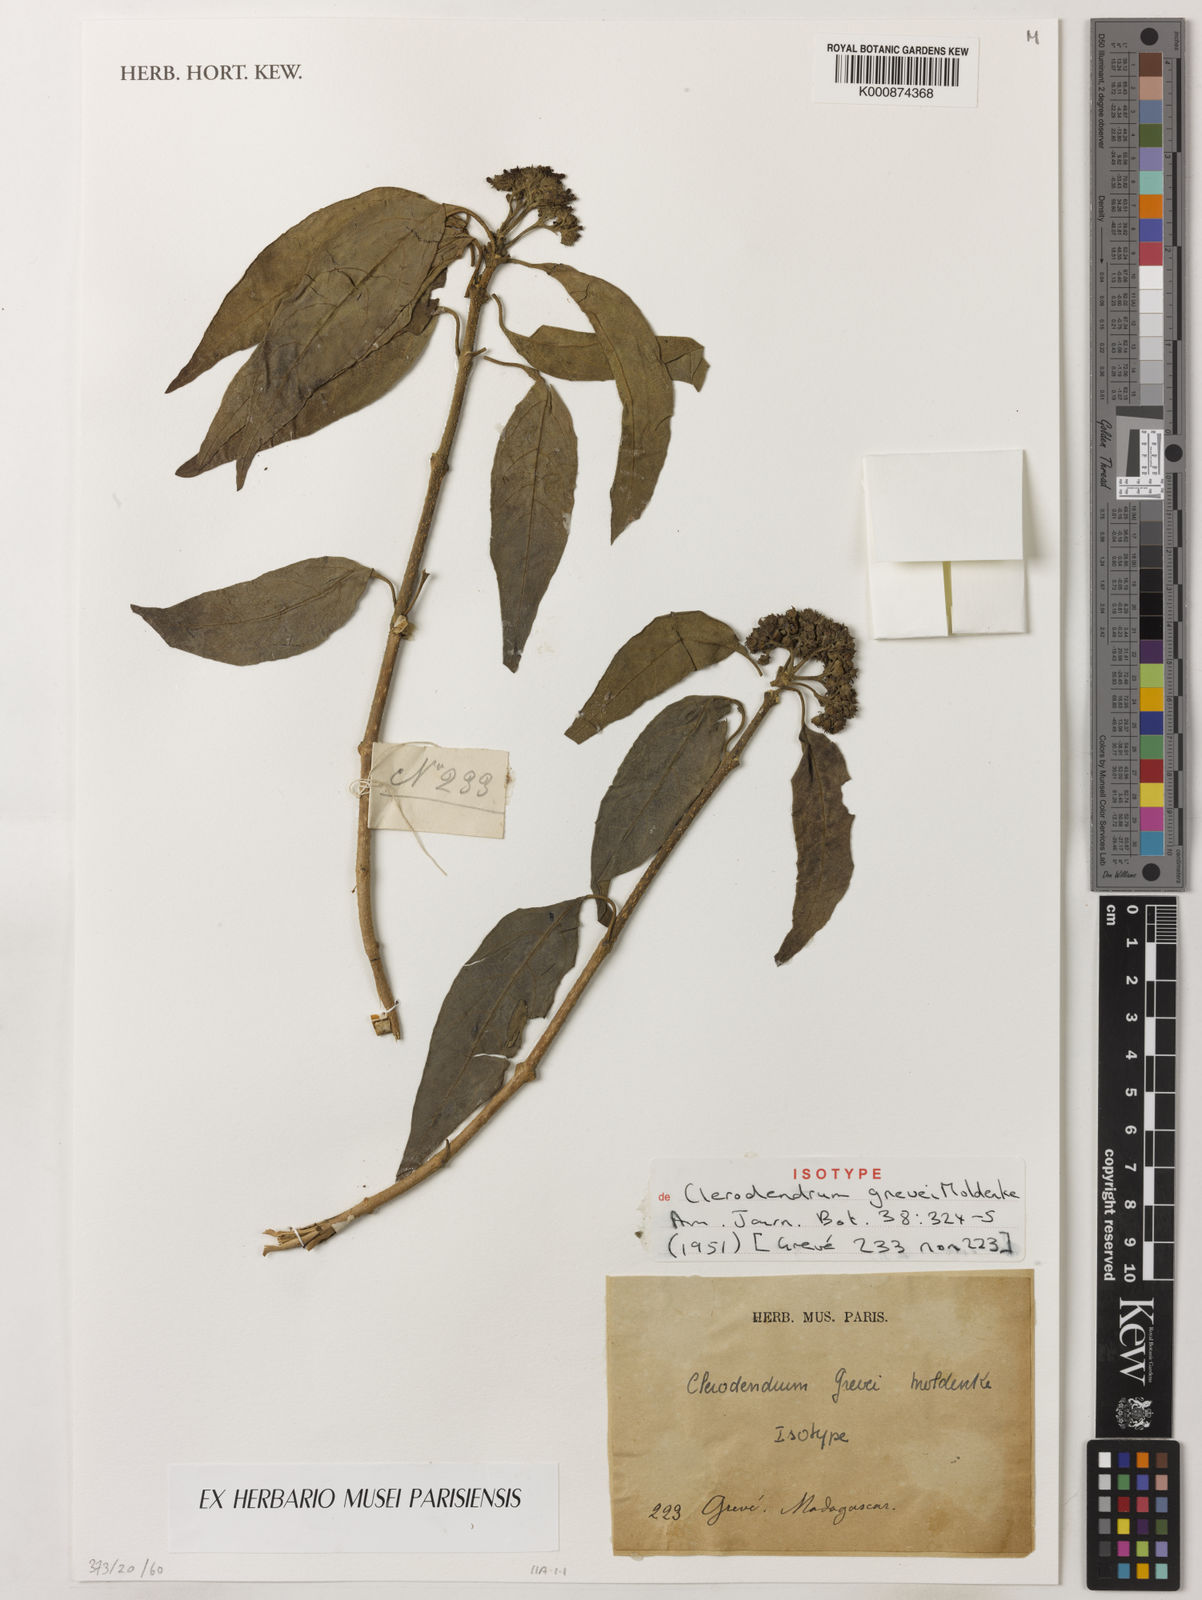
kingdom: Plantae
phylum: Tracheophyta
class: Magnoliopsida
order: Lamiales
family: Lamiaceae
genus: Clerodendrum
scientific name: Clerodendrum grevei
